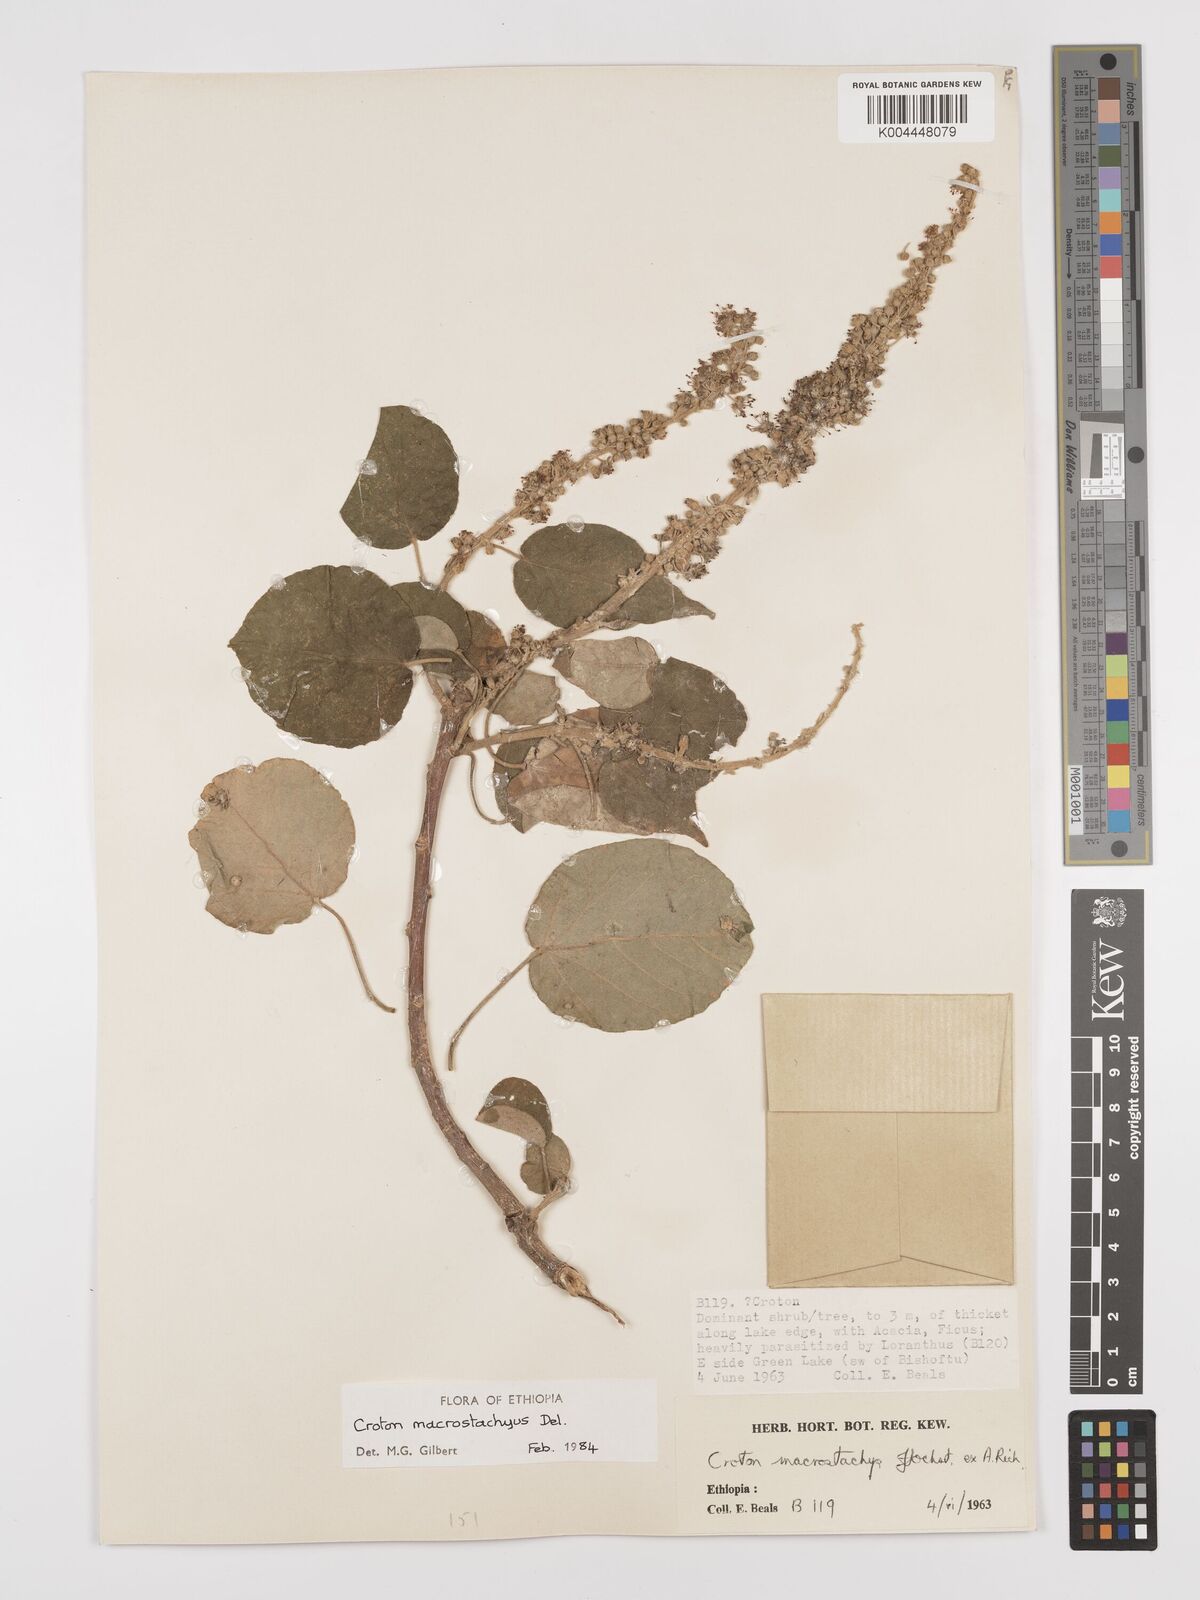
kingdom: Plantae
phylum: Tracheophyta
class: Magnoliopsida
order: Malpighiales
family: Euphorbiaceae
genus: Croton
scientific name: Croton macrostachyus
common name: Mutundu
